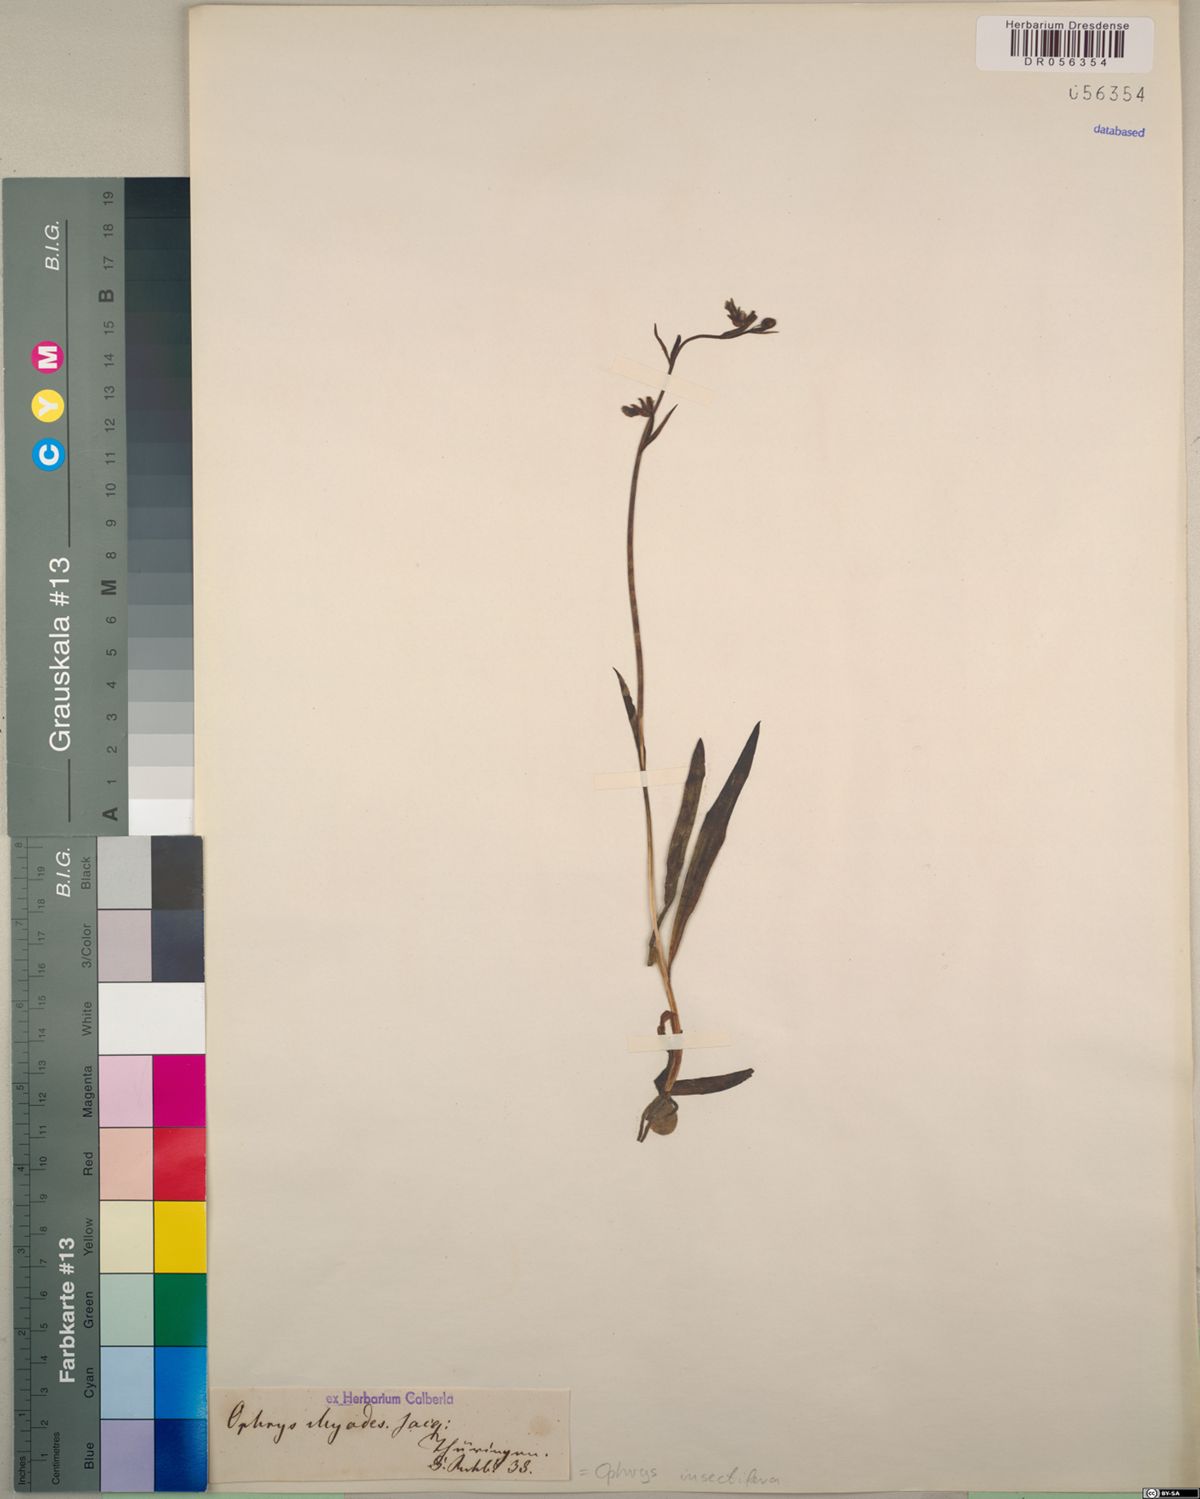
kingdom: Plantae
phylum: Tracheophyta
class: Liliopsida
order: Asparagales
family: Orchidaceae
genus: Ophrys
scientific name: Ophrys insectifera
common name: Fly orchid
